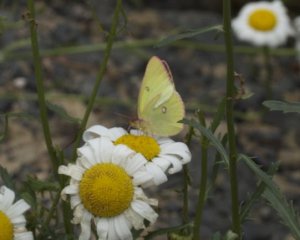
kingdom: Animalia
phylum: Arthropoda
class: Insecta
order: Lepidoptera
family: Pieridae
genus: Colias
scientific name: Colias interior
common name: Pink-edged Sulphur
